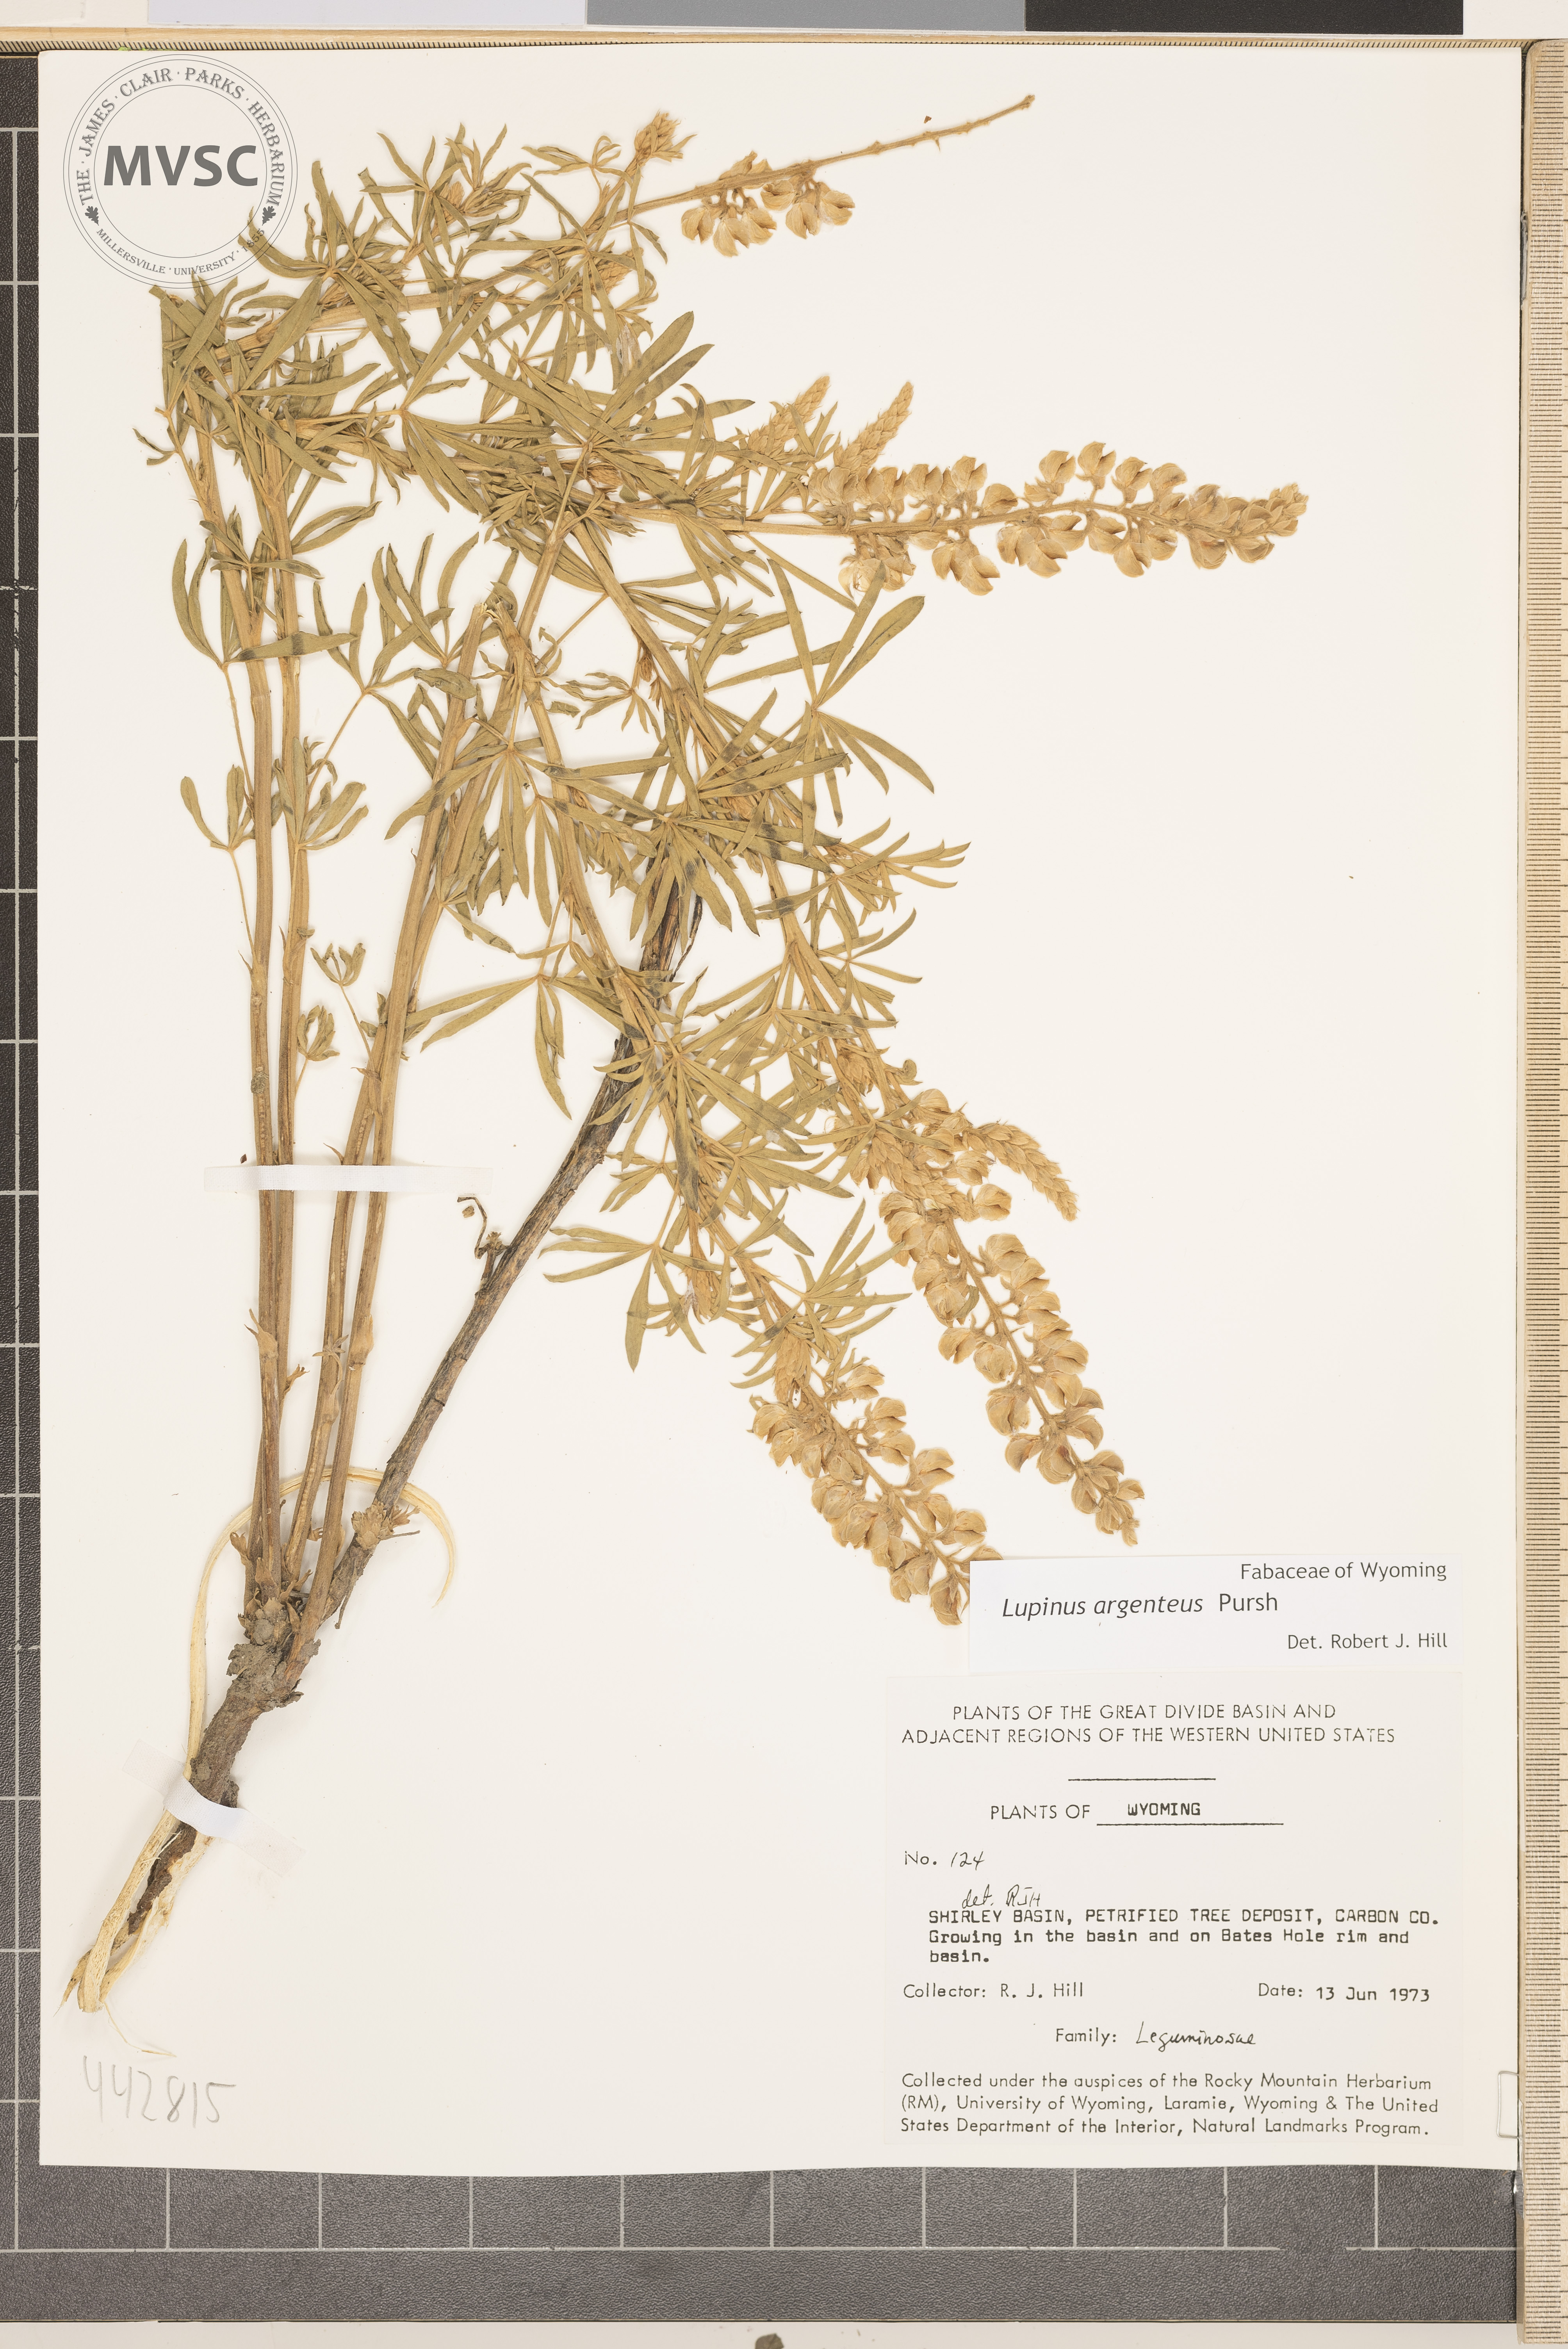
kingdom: Plantae
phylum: Tracheophyta
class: Magnoliopsida
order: Fabales
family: Fabaceae
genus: Lupinus
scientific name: Lupinus argenteus
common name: Silvery lupine
